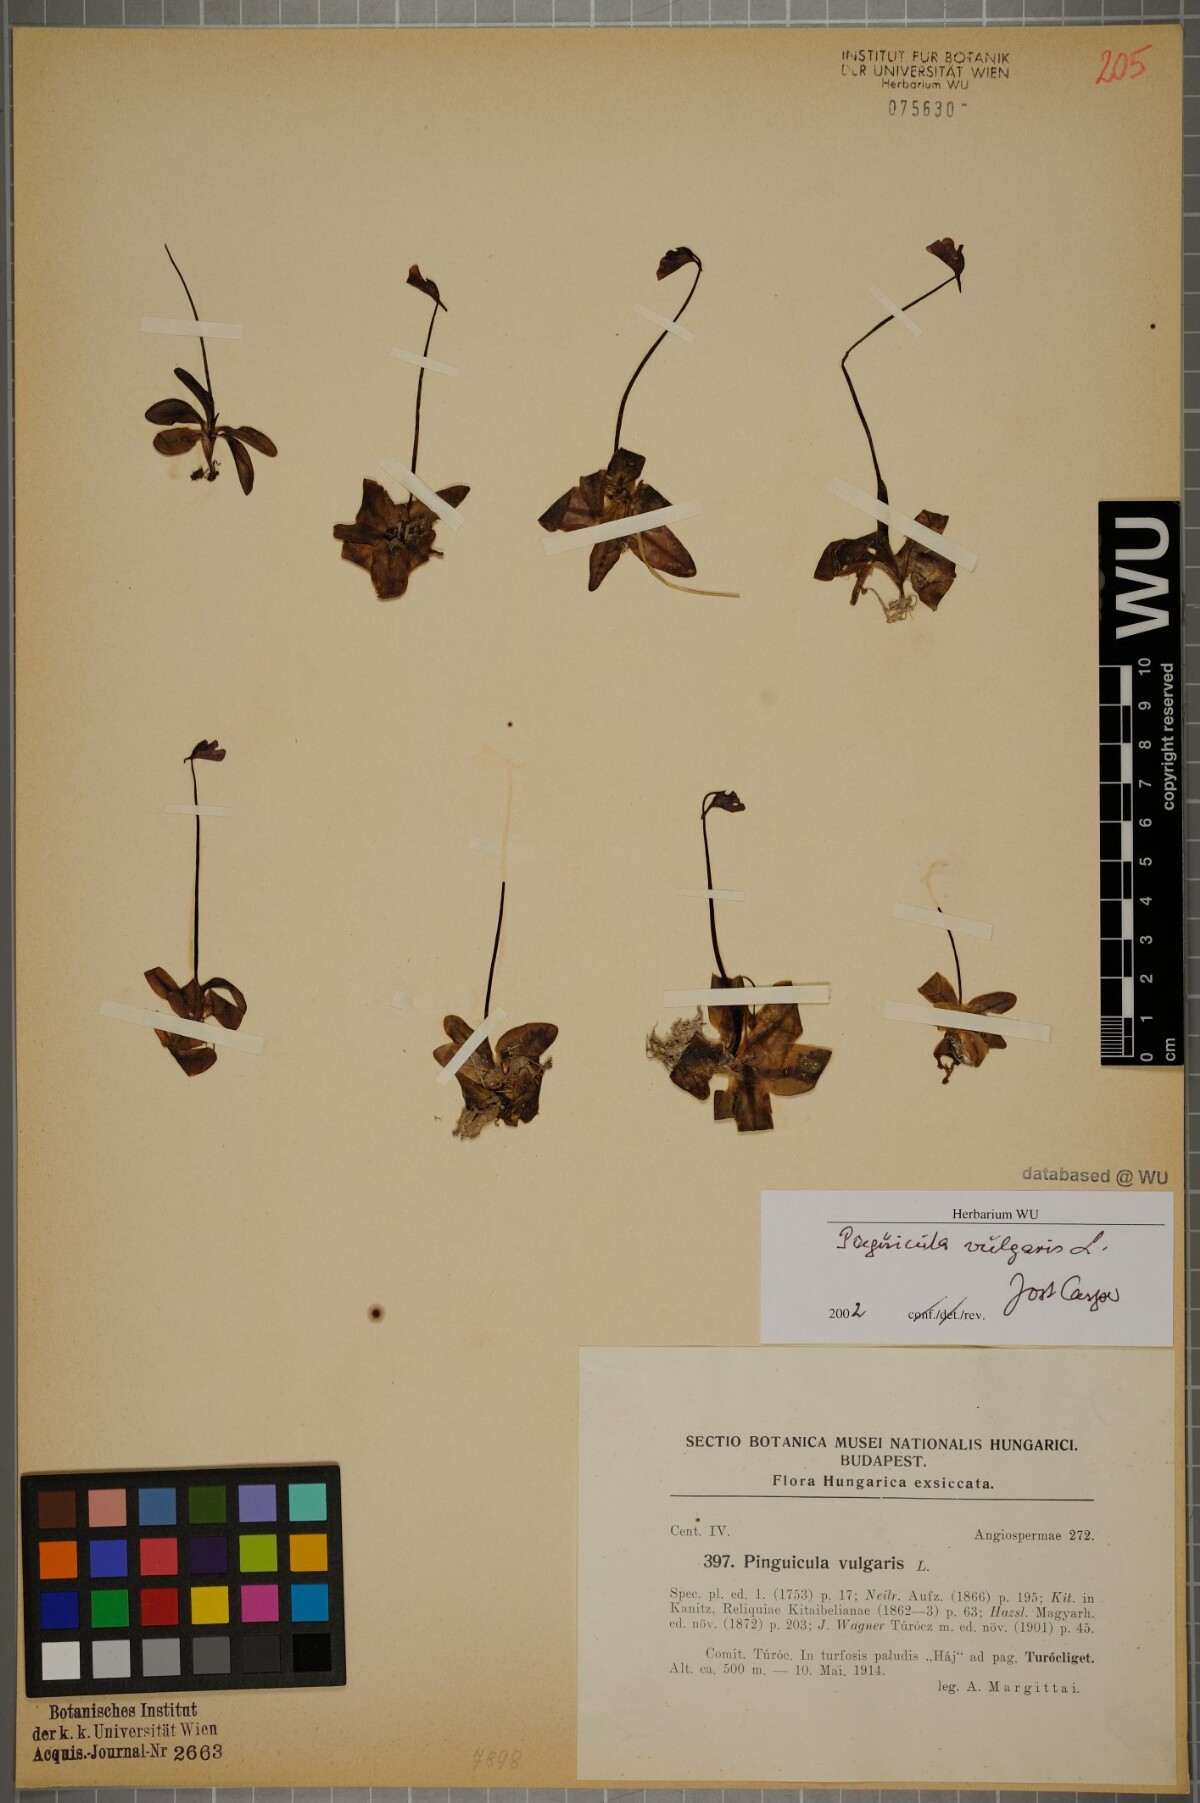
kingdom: Plantae
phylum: Tracheophyta
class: Magnoliopsida
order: Lamiales
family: Lentibulariaceae
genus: Pinguicula
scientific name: Pinguicula vulgaris
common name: Common butterwort
